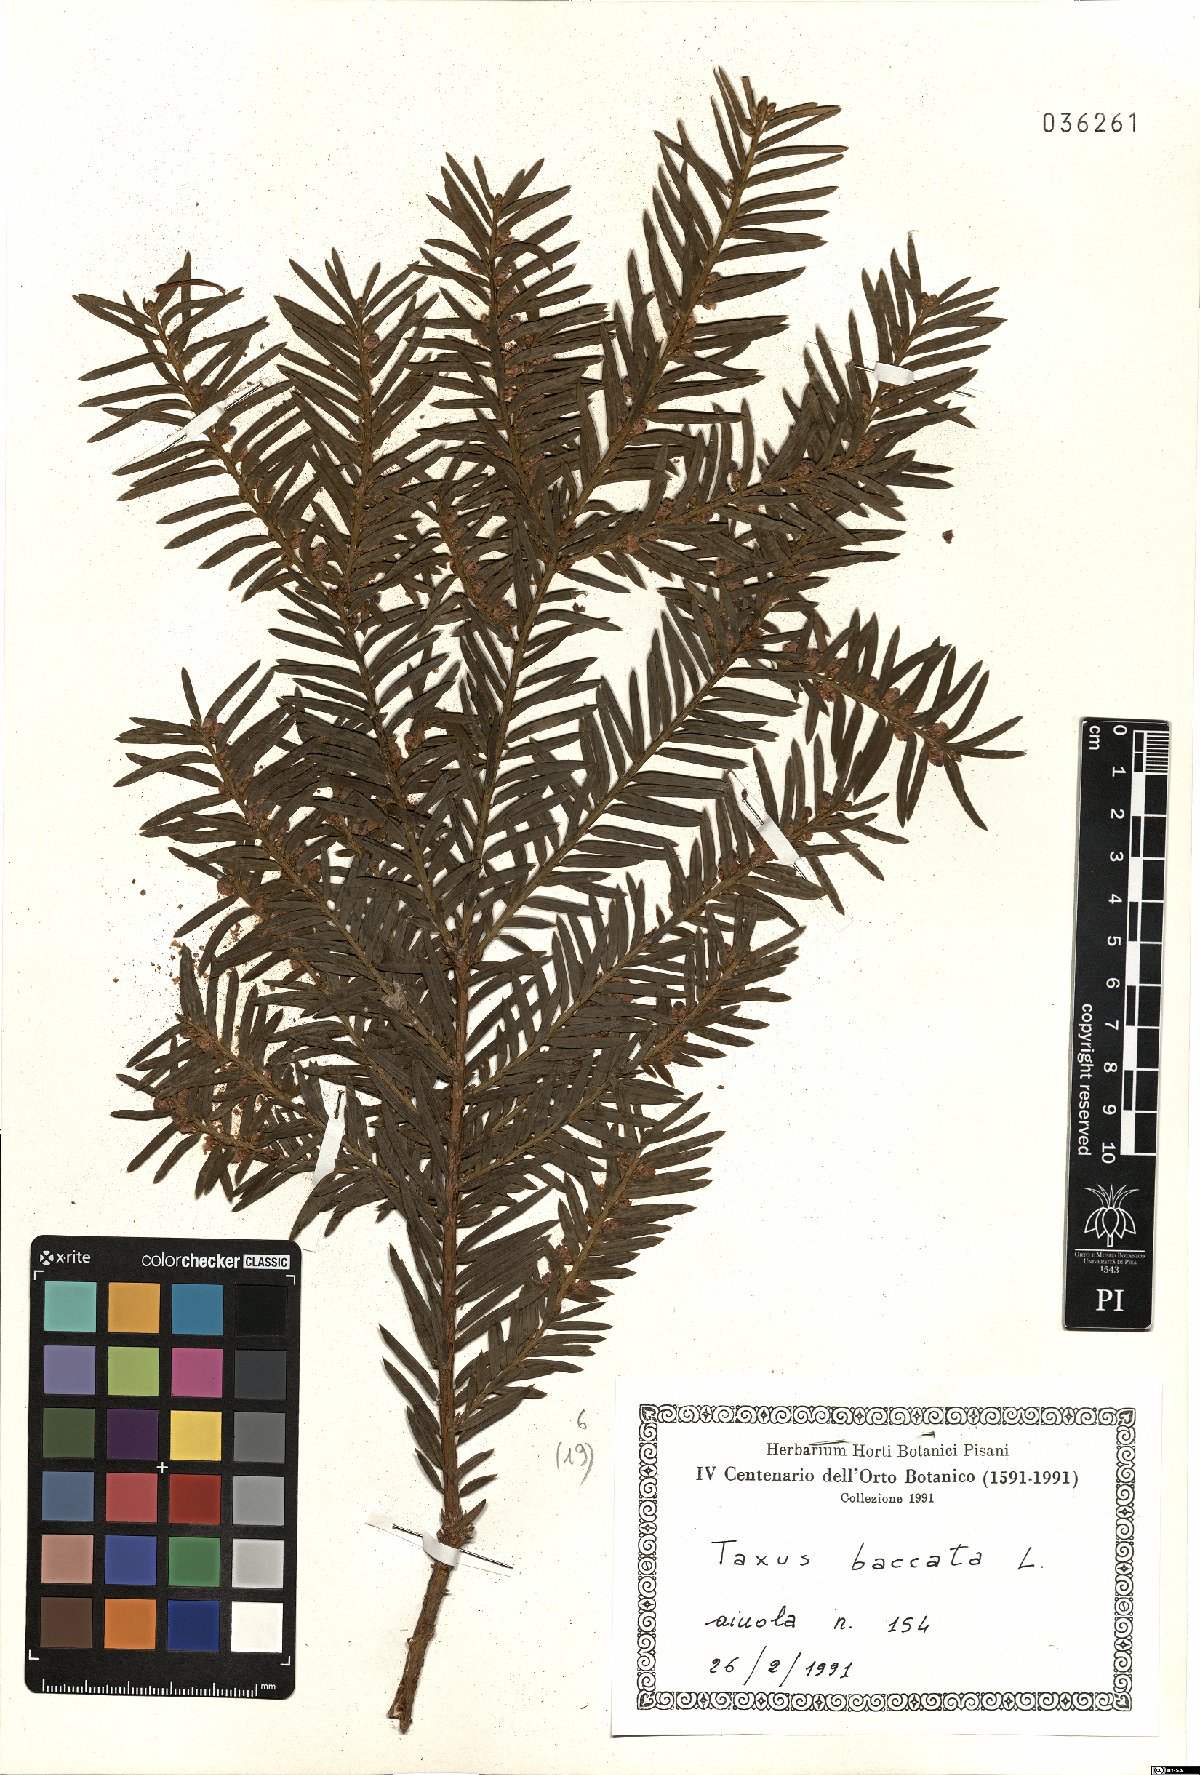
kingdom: Plantae
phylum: Tracheophyta
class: Pinopsida
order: Pinales
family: Taxaceae
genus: Taxus
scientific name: Taxus baccata
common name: Yew
